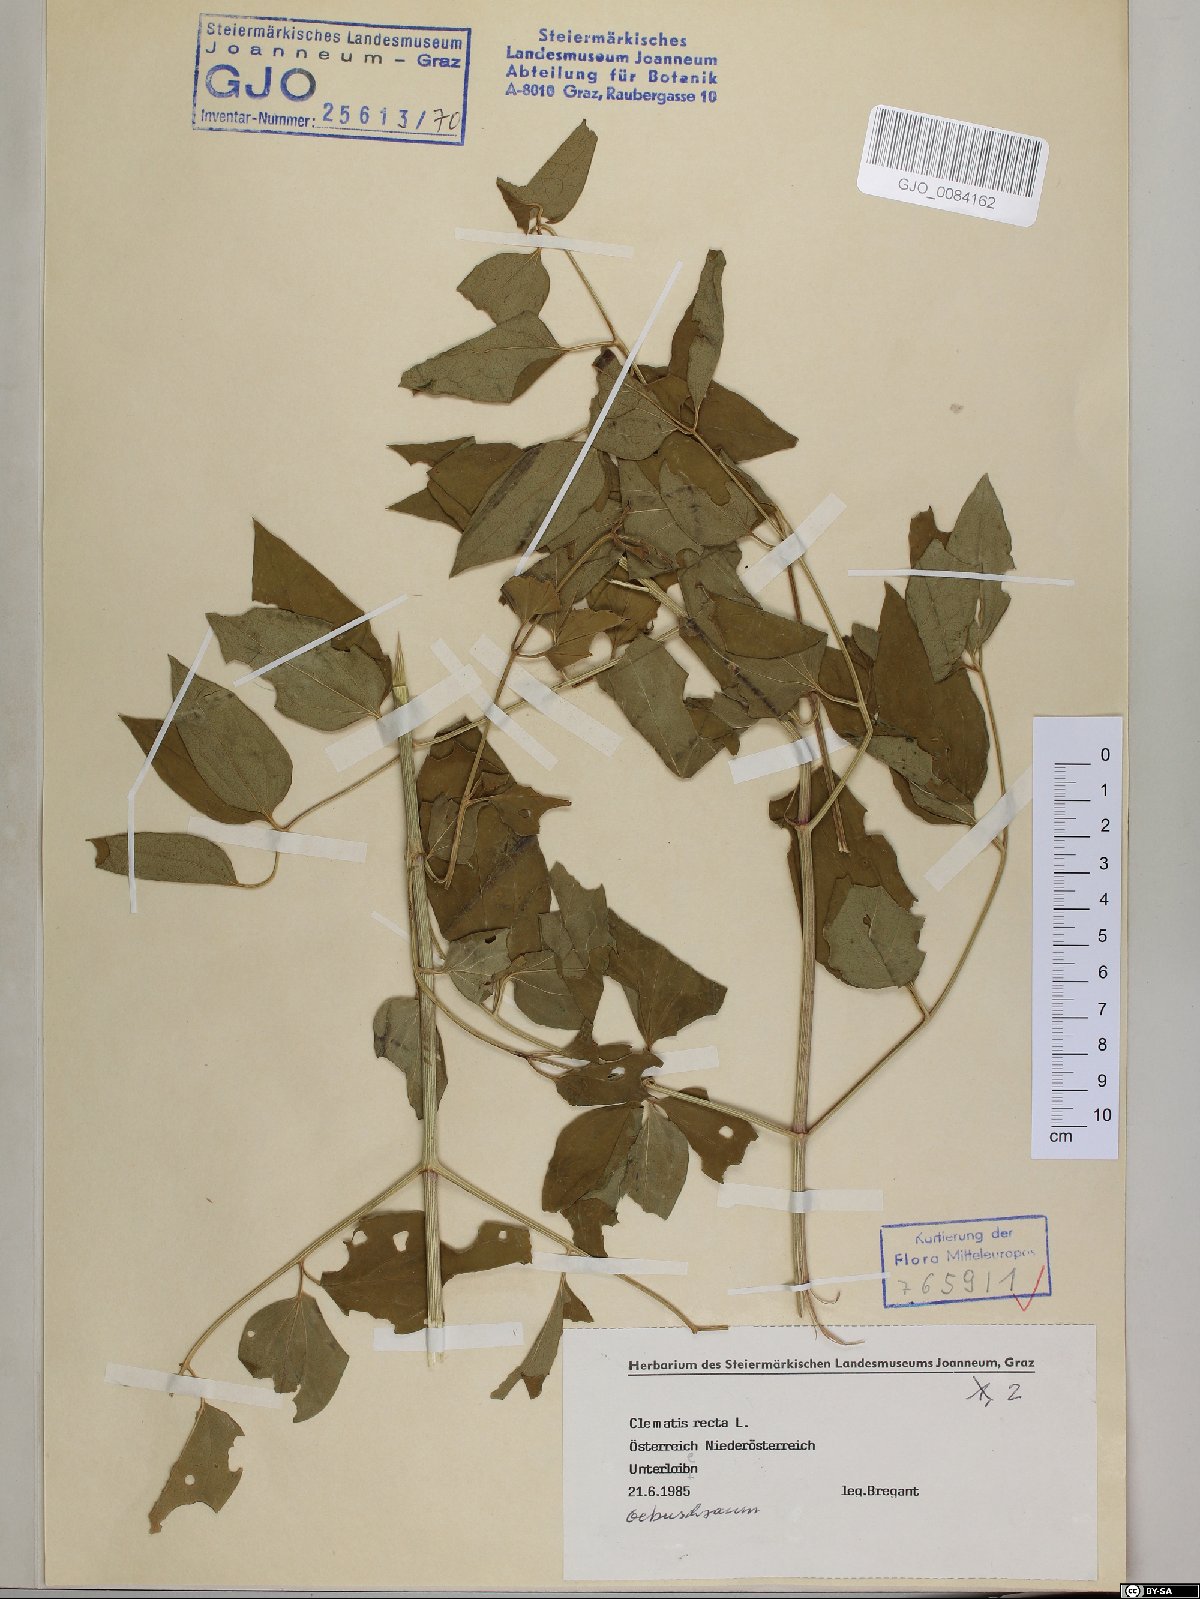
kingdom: Plantae
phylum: Tracheophyta
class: Magnoliopsida
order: Ranunculales
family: Ranunculaceae
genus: Clematis
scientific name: Clematis recta
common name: Ground clematis
